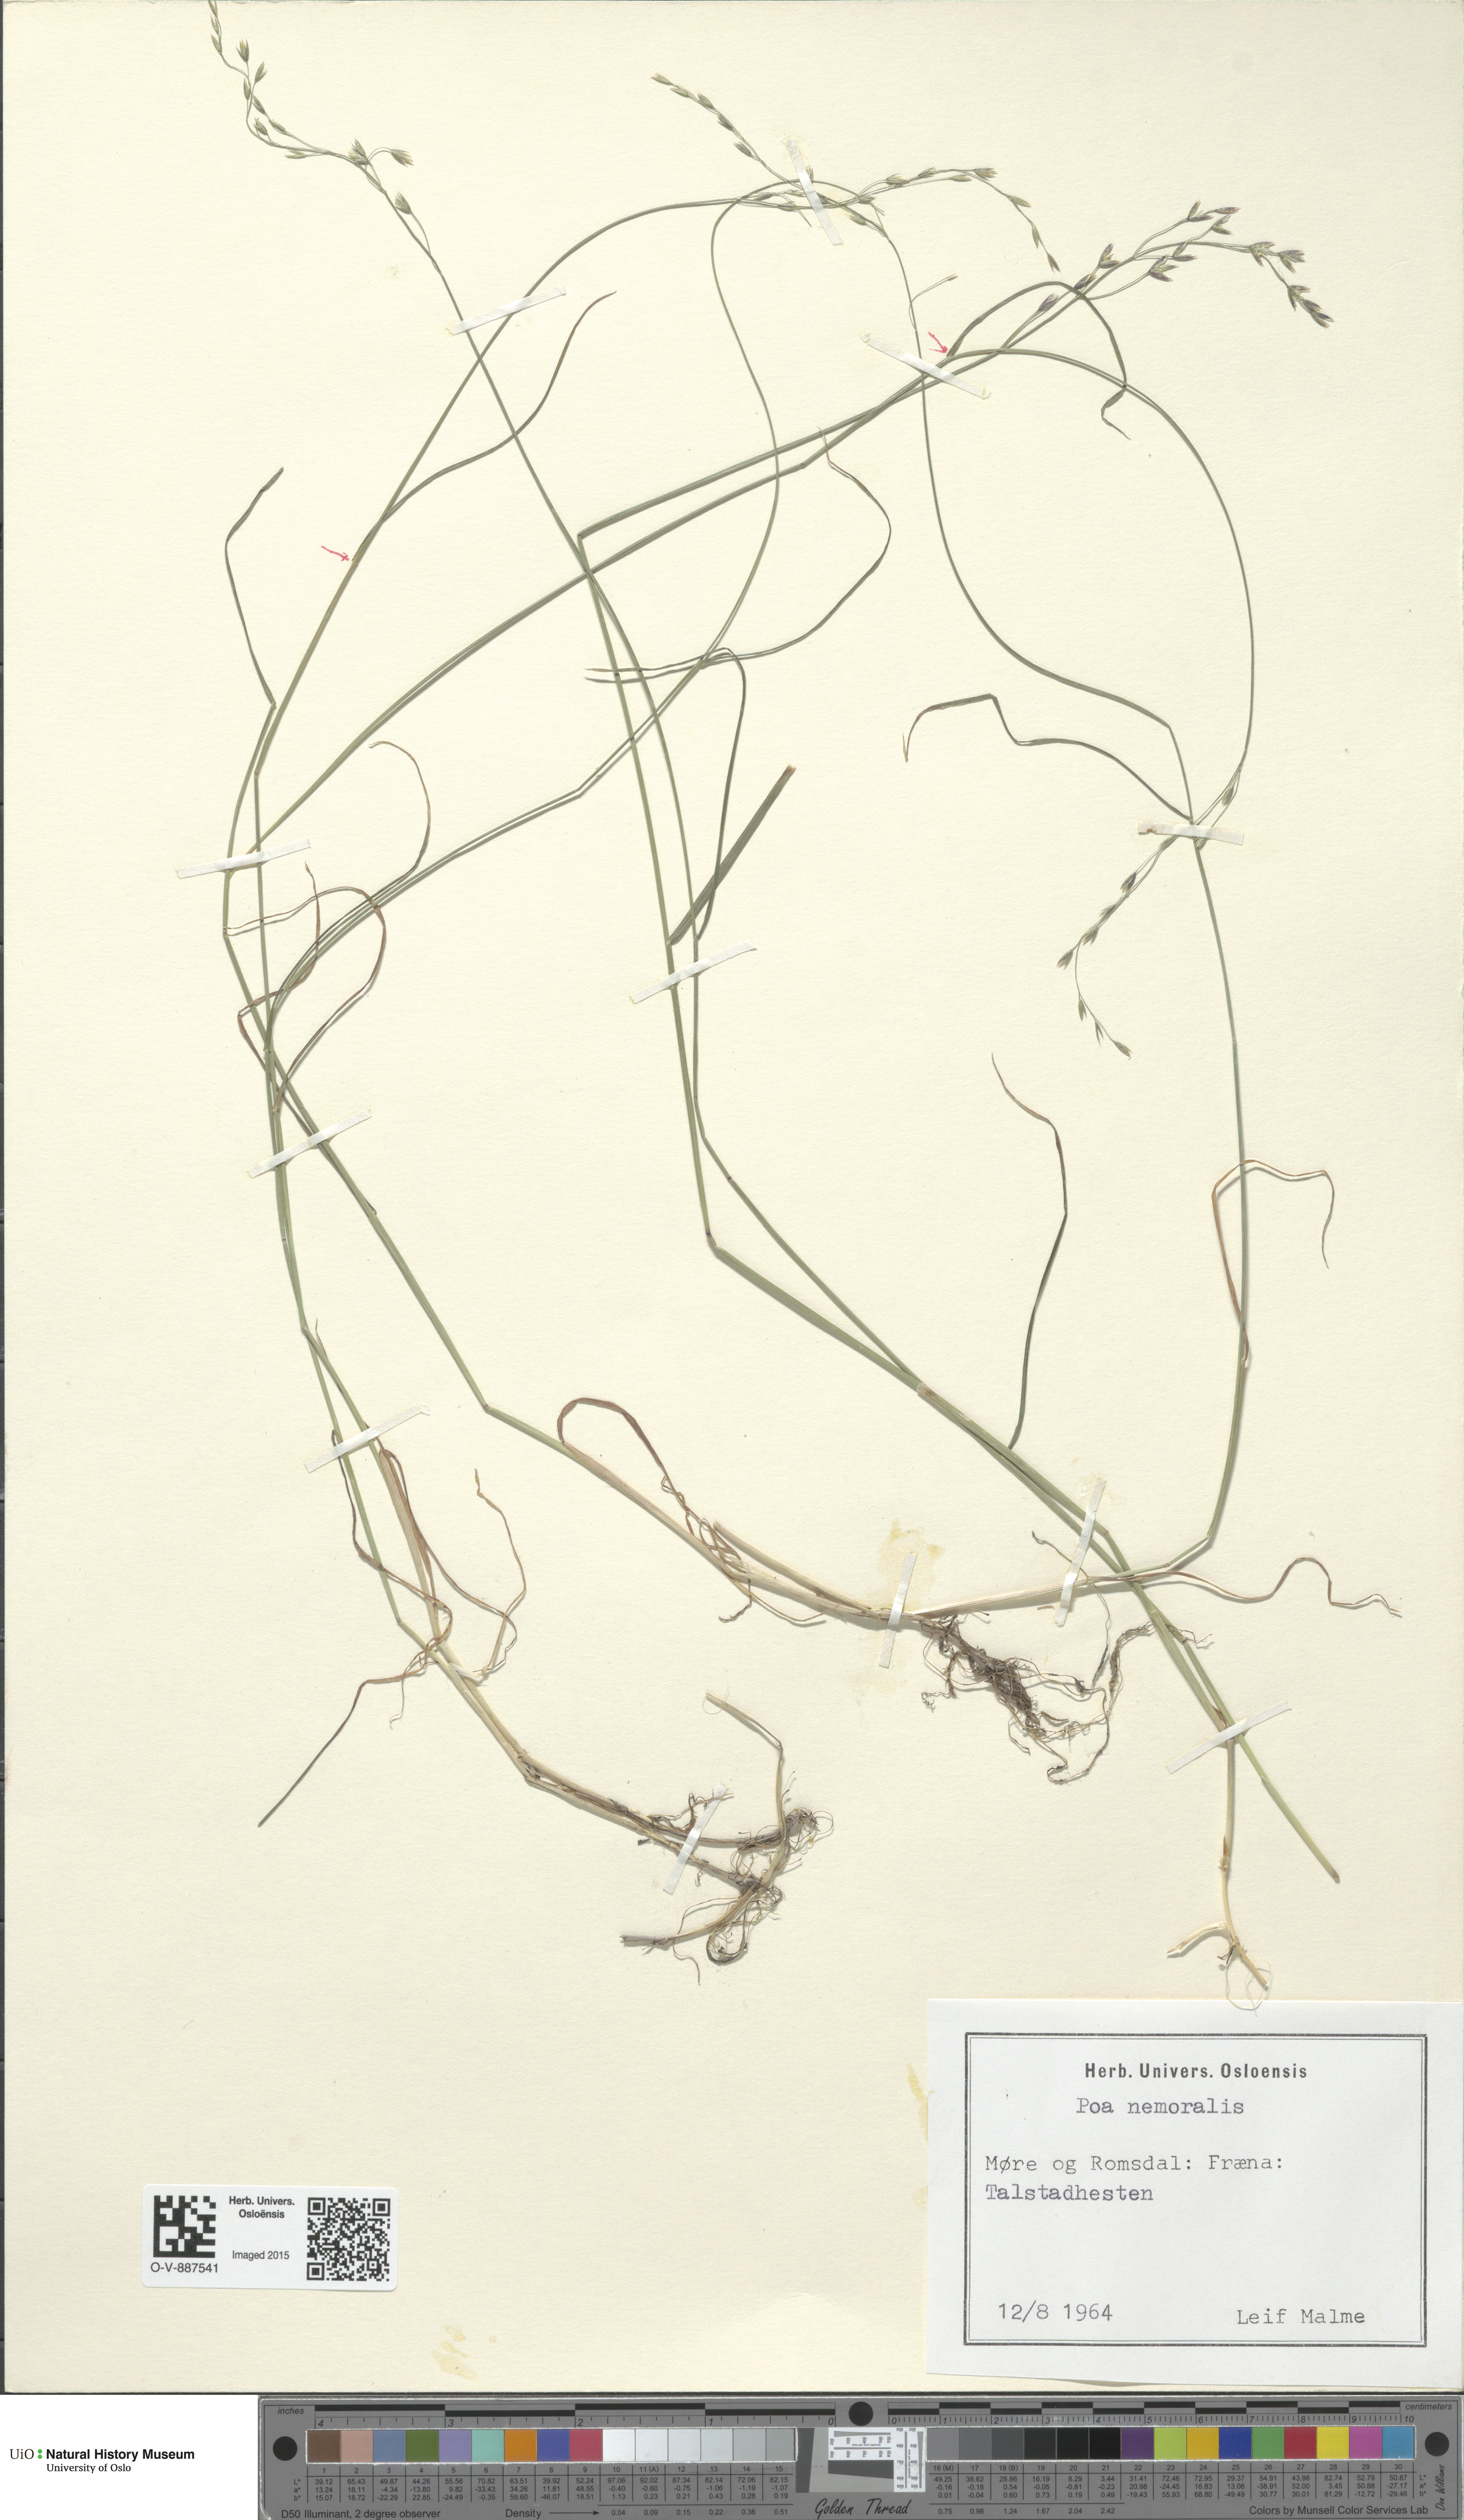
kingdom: Plantae
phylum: Tracheophyta
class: Liliopsida
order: Poales
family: Poaceae
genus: Poa
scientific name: Poa nemoralis
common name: Wood bluegrass
